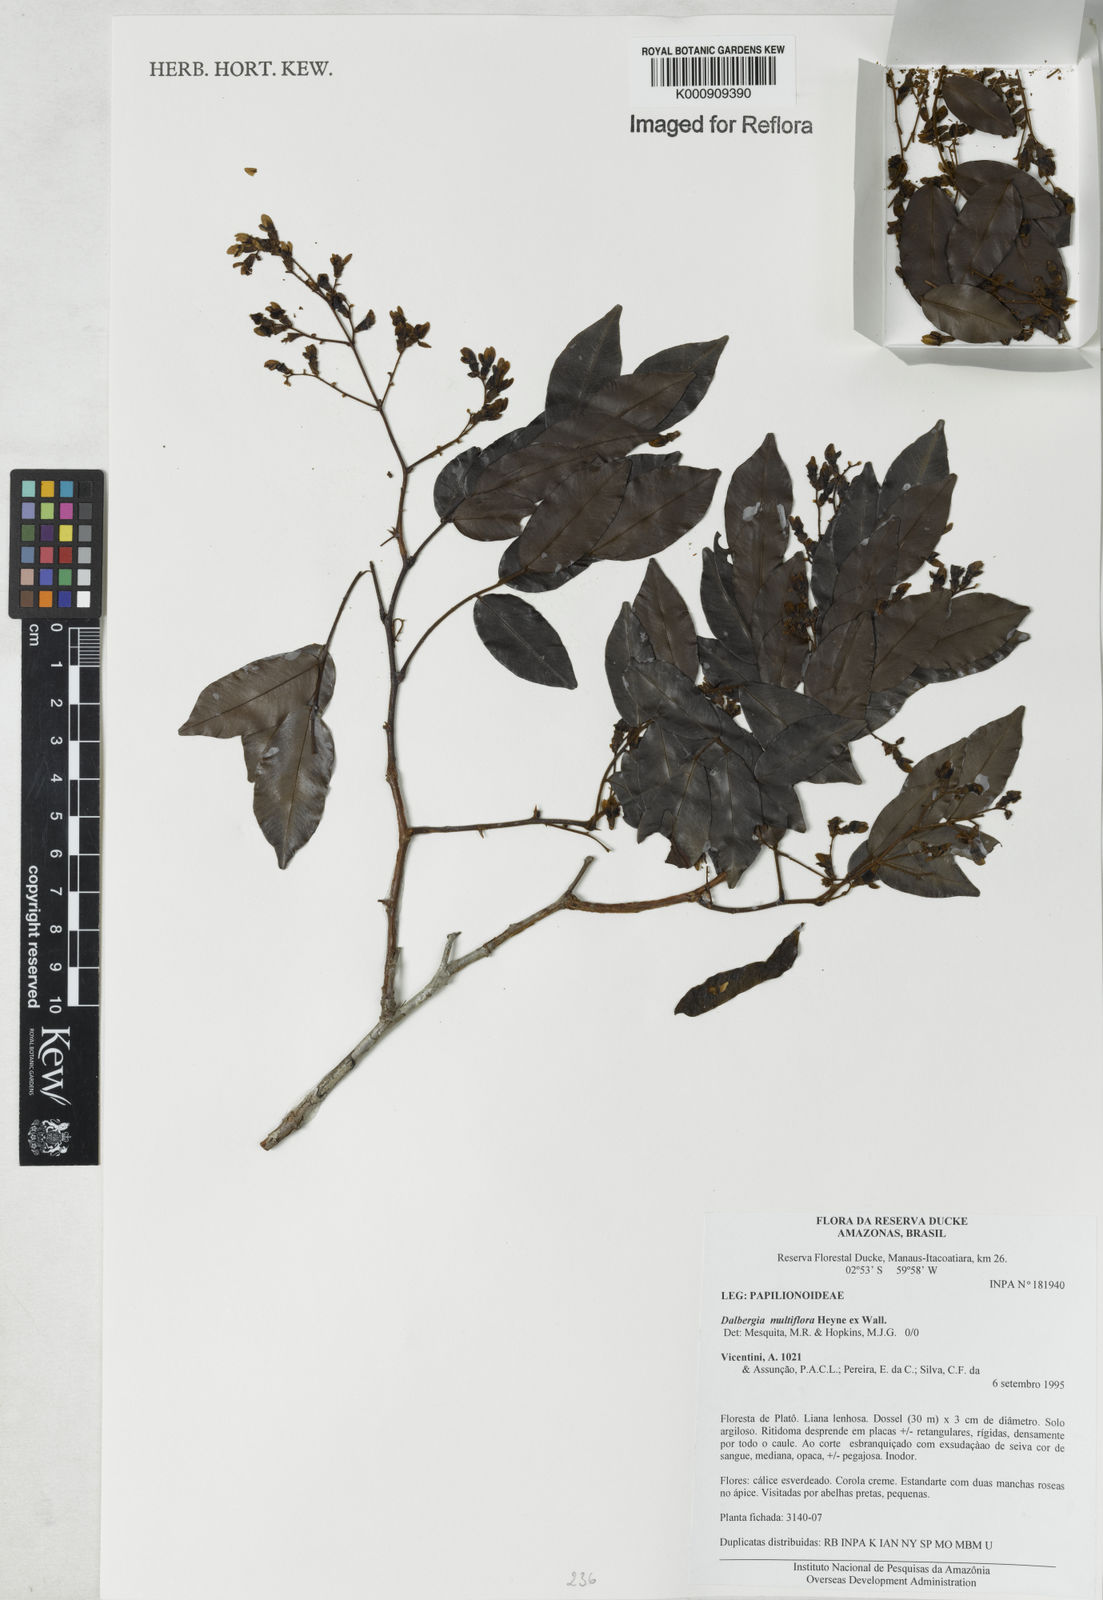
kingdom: Plantae
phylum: Tracheophyta
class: Magnoliopsida
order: Fabales
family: Fabaceae
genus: Dalbergia
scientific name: Dalbergia
